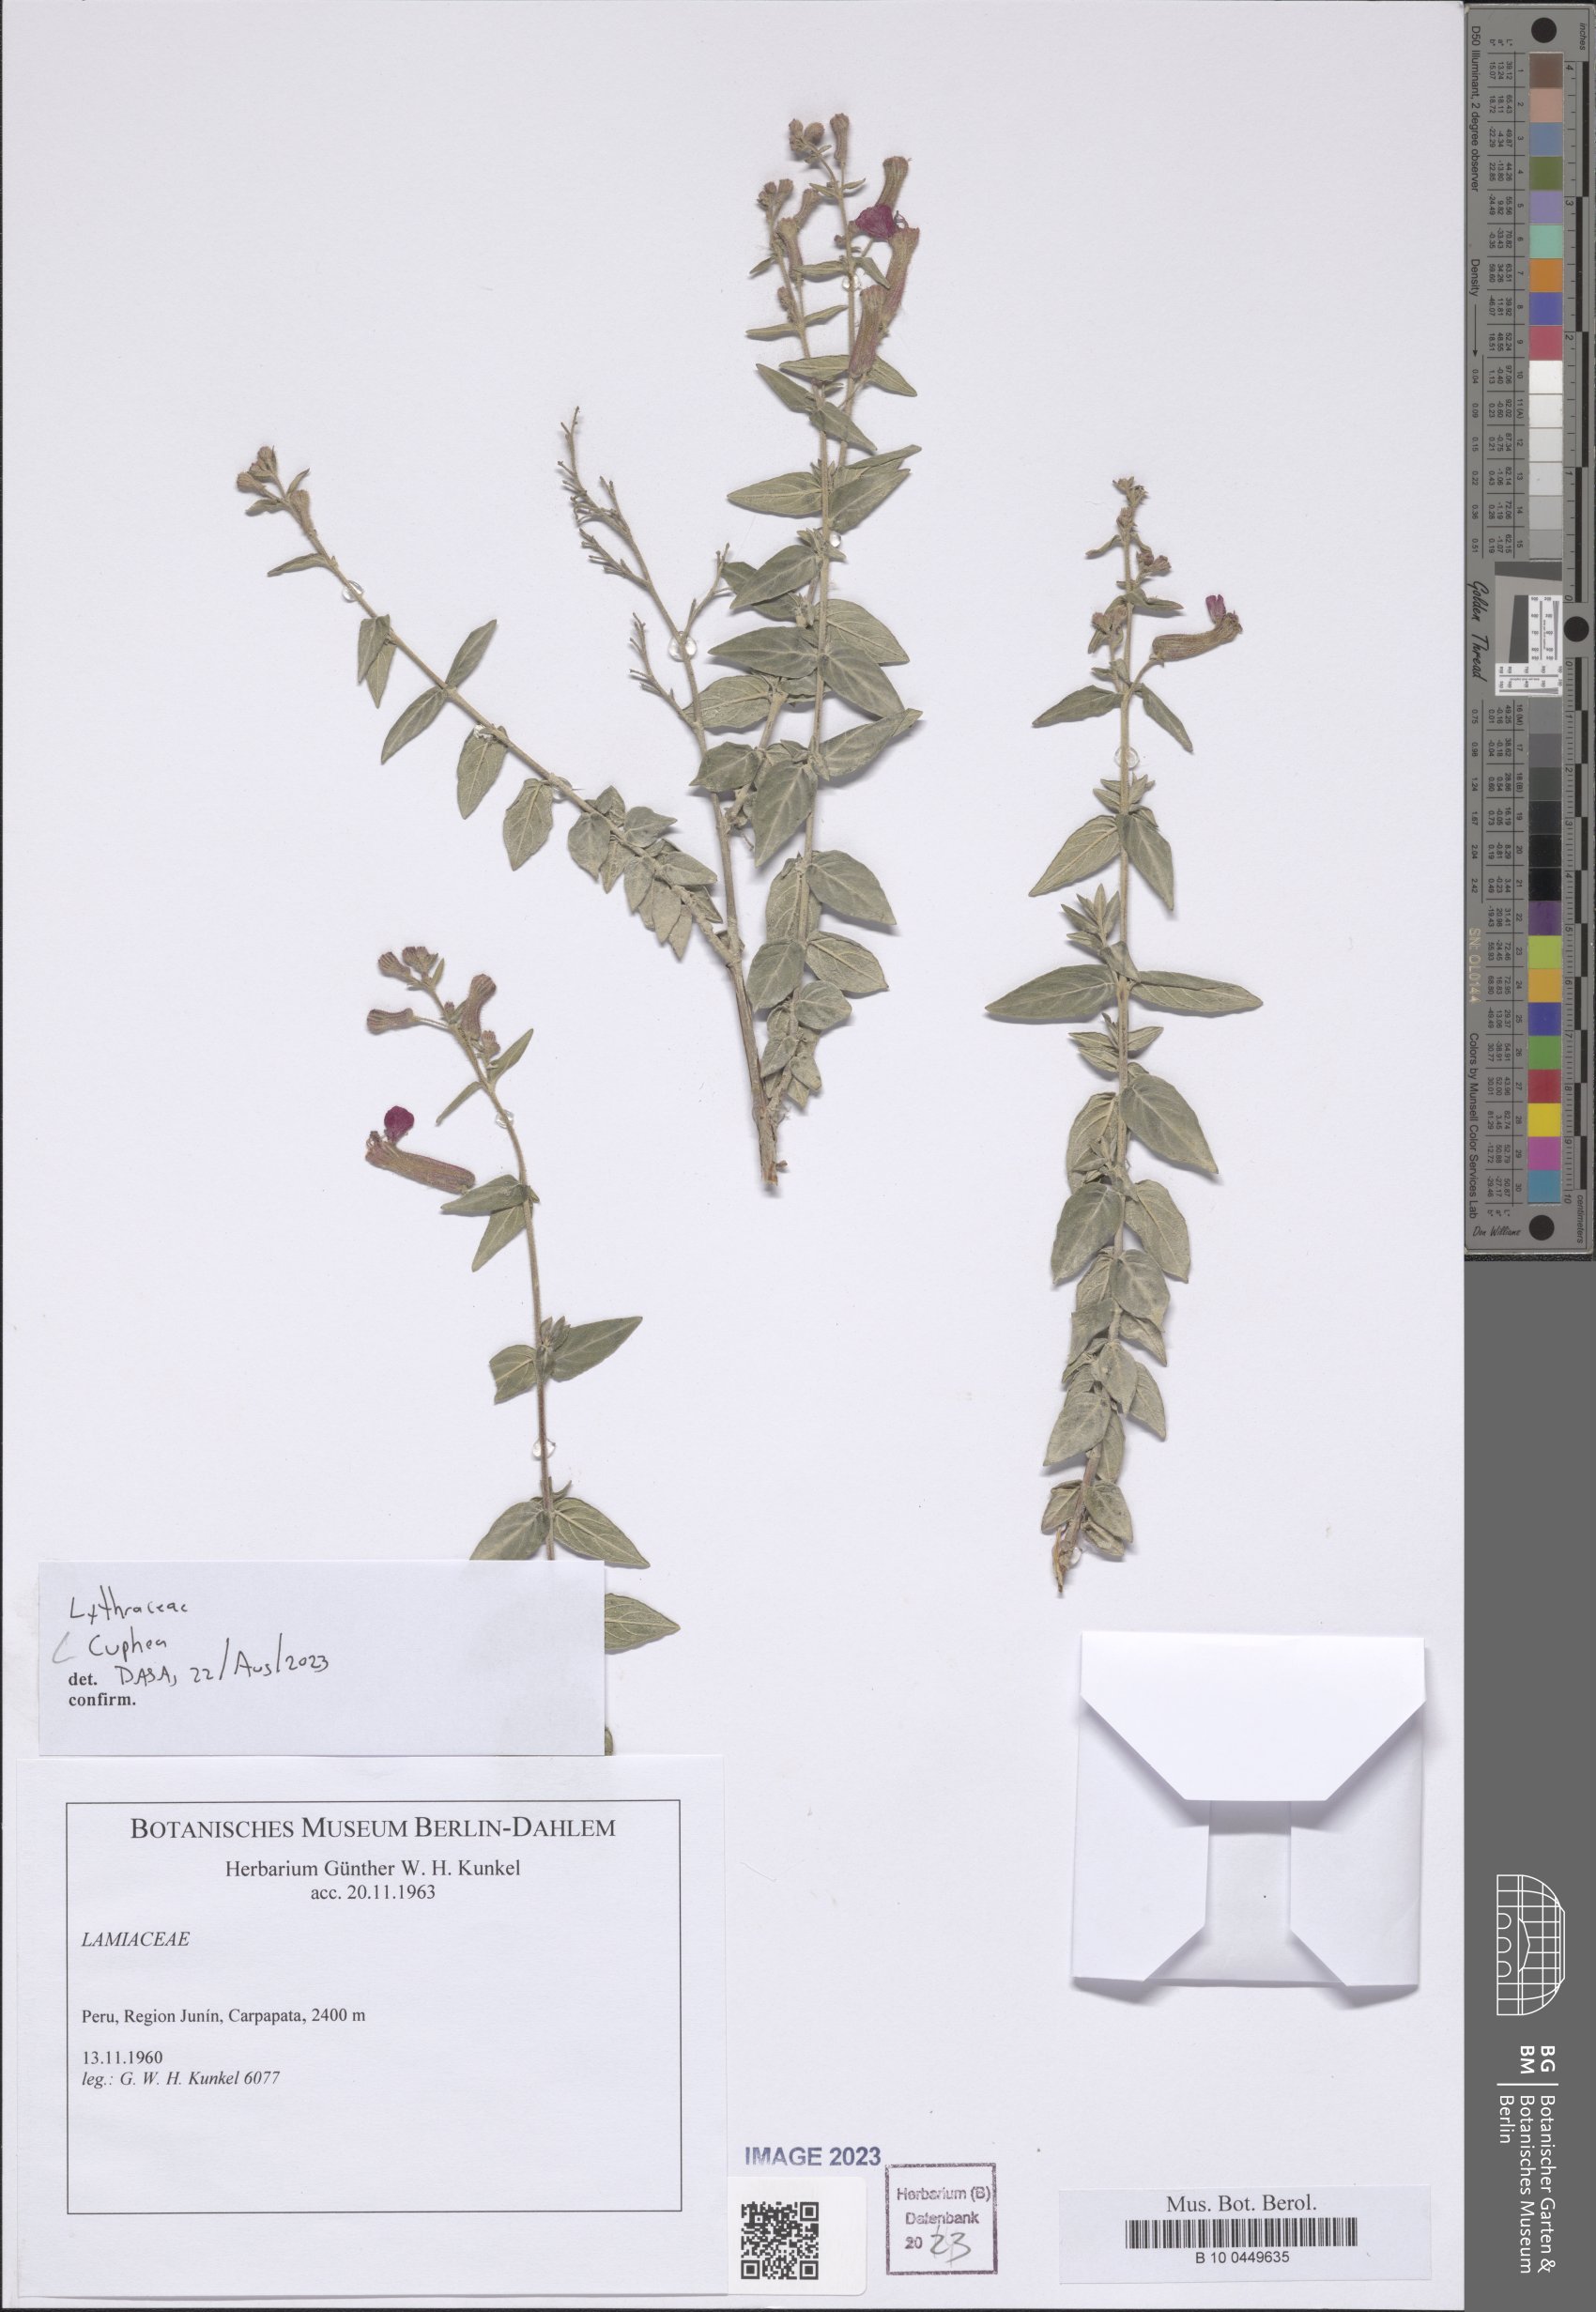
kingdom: Plantae
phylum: Tracheophyta
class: Magnoliopsida
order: Myrtales
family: Lythraceae
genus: Cuphea
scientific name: Cuphea
